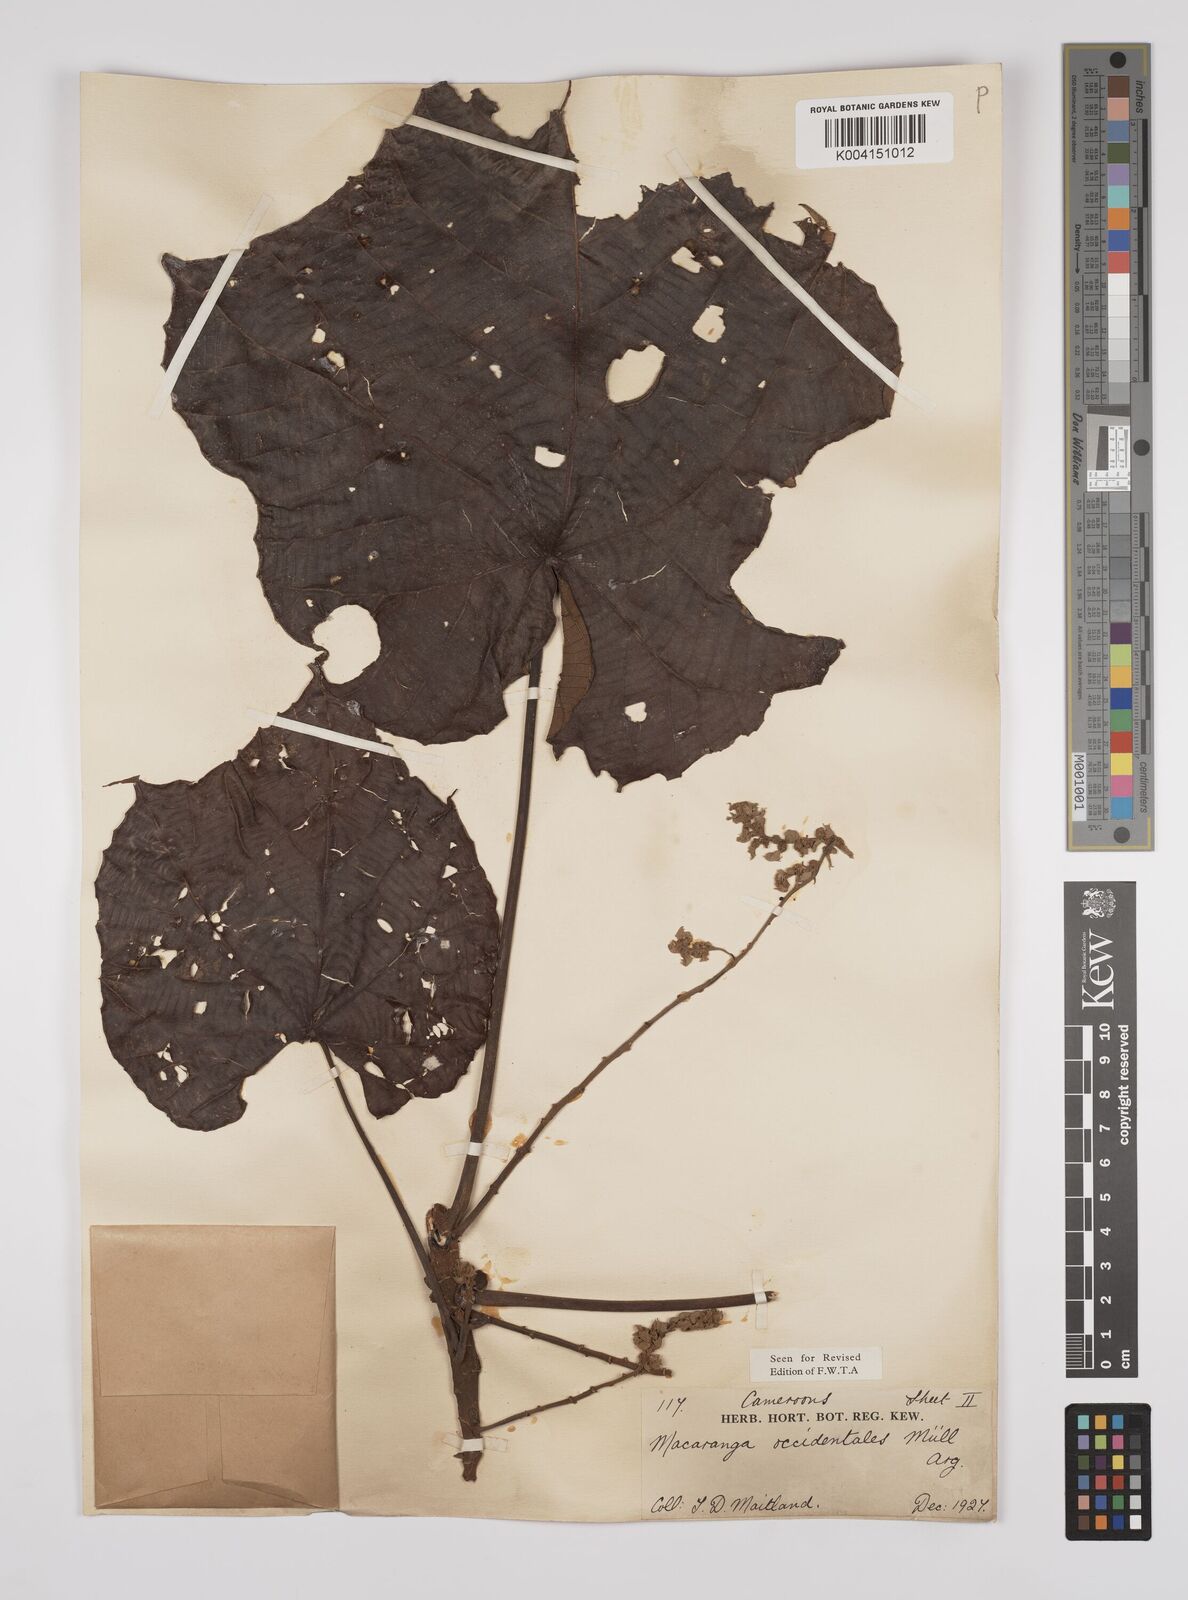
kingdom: Plantae
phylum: Tracheophyta
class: Magnoliopsida
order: Malpighiales
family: Euphorbiaceae
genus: Macaranga
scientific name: Macaranga occidentalis
